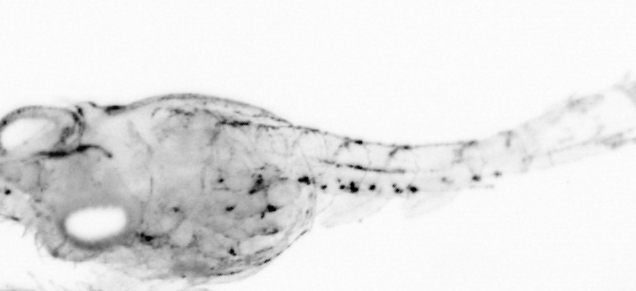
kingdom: Animalia
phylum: Arthropoda
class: Copepoda
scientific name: Copepoda
